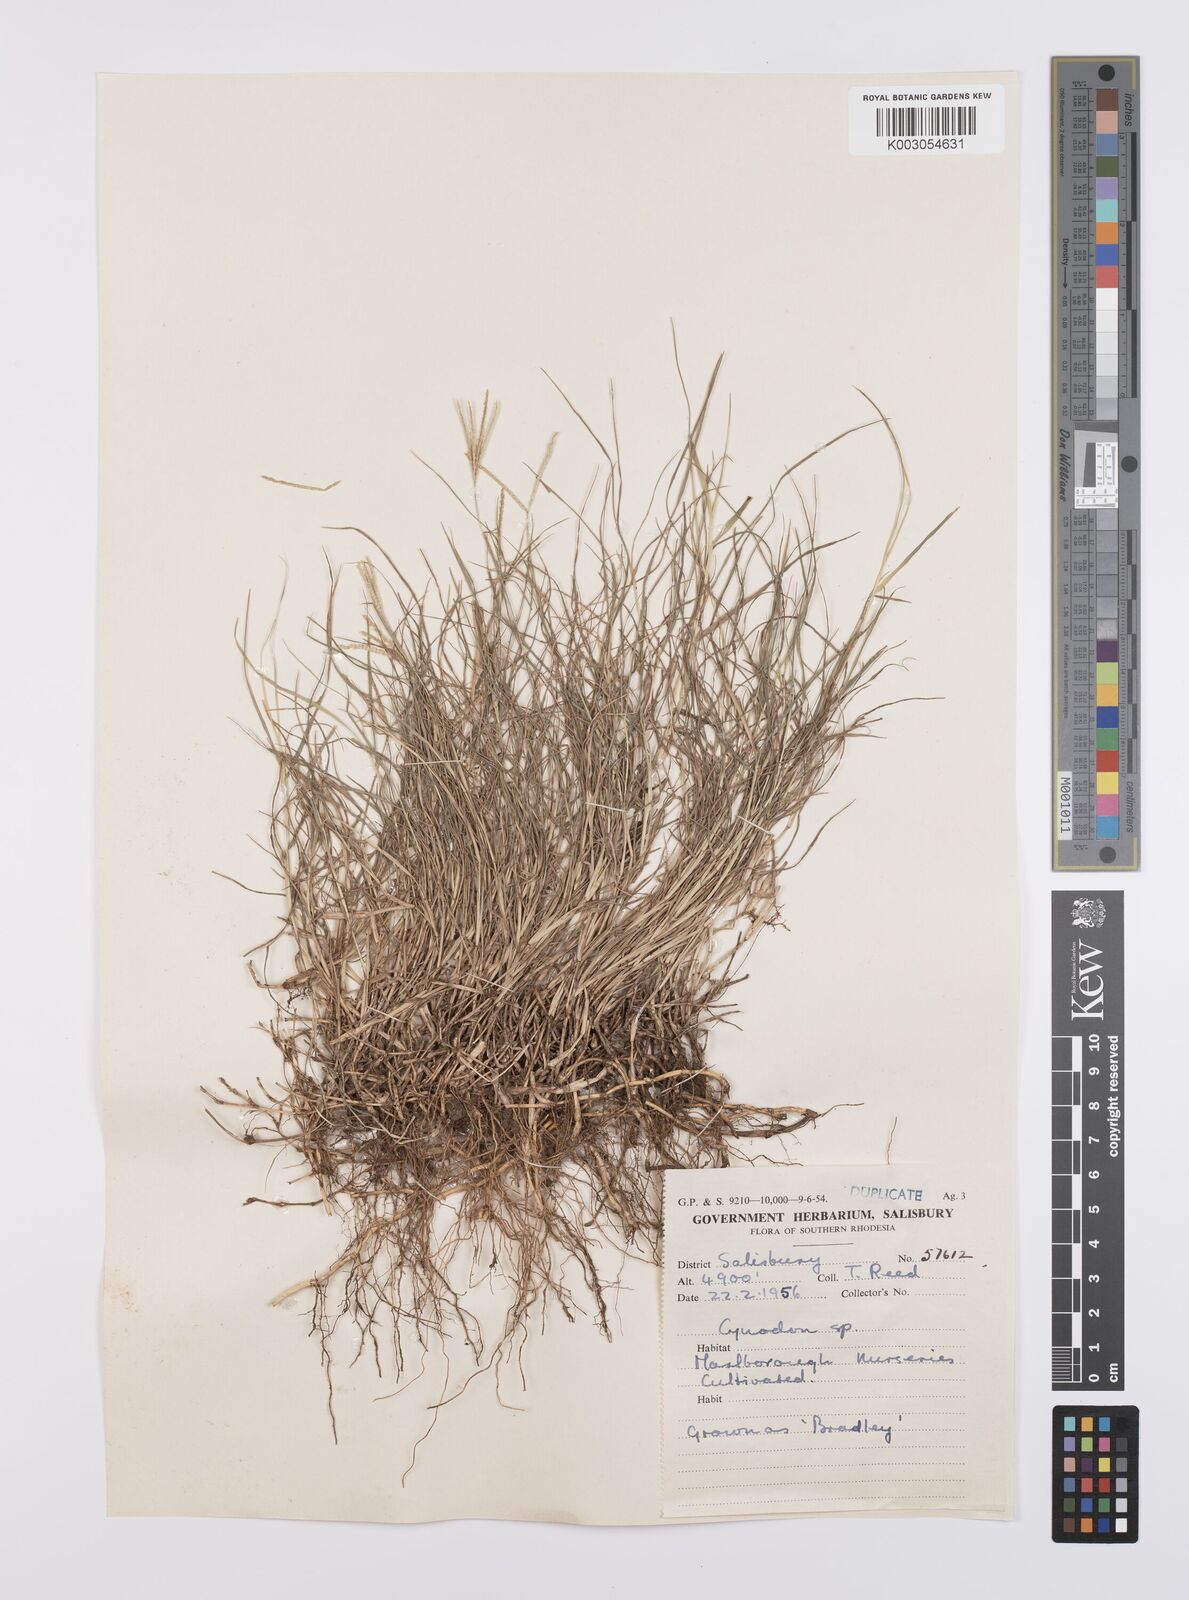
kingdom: Plantae
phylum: Tracheophyta
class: Liliopsida
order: Poales
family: Poaceae
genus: Cynodon
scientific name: Cynodon dactylon
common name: Bermuda grass
